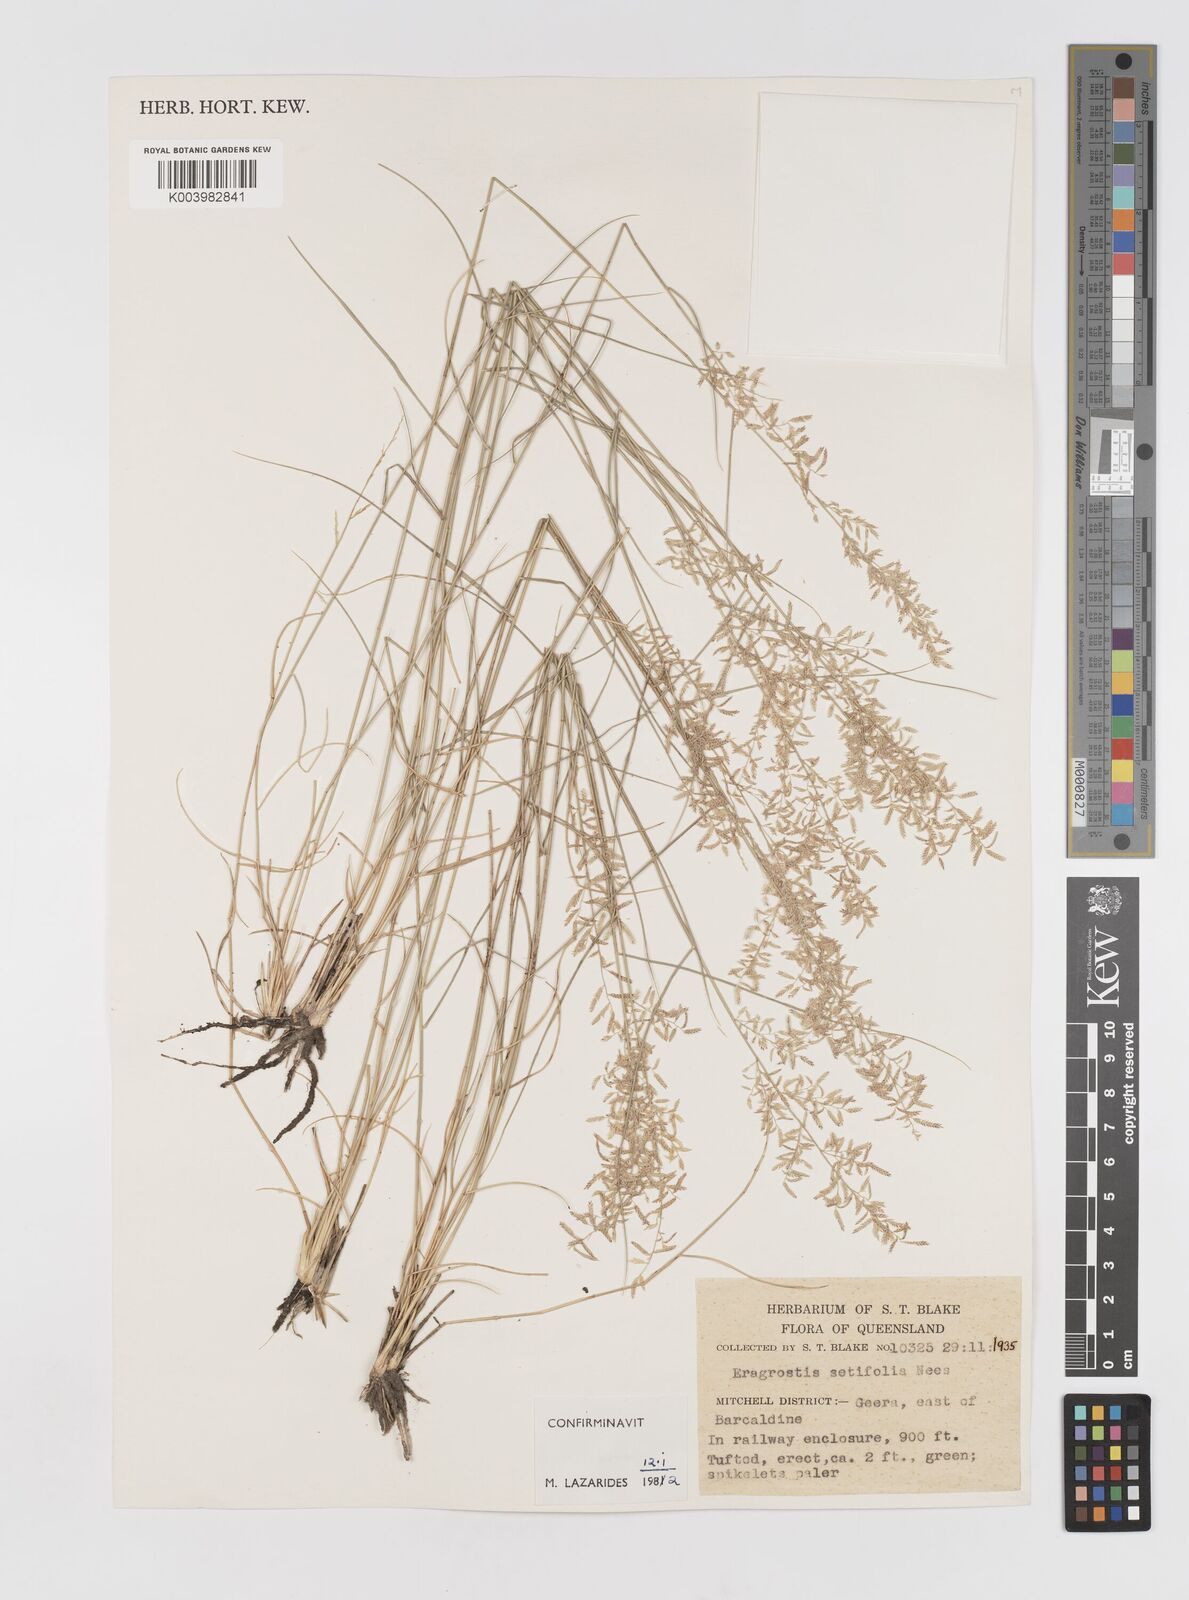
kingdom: Plantae
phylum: Tracheophyta
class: Liliopsida
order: Poales
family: Poaceae
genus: Eragrostis
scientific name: Eragrostis setifolia
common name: Bristleleaf lovegrass
